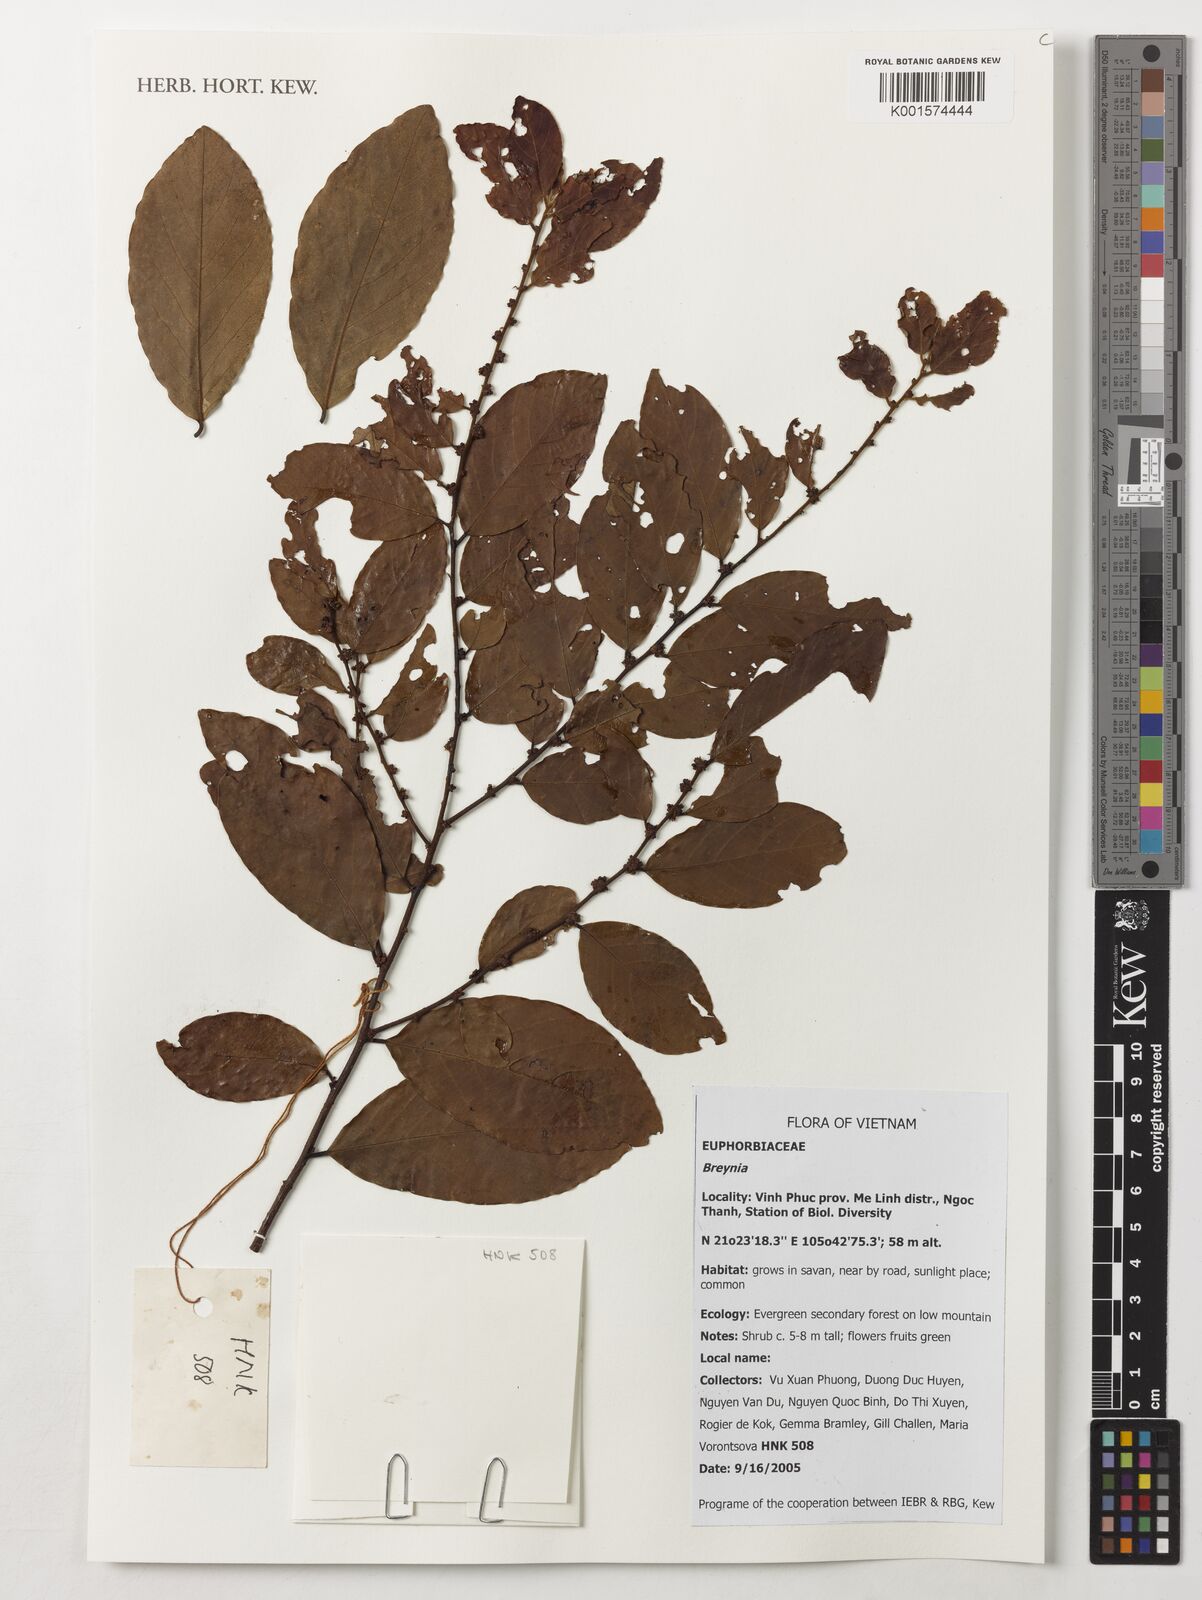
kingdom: Plantae
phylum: Tracheophyta
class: Magnoliopsida
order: Malpighiales
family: Phyllanthaceae
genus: Breynia
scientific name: Breynia spec
